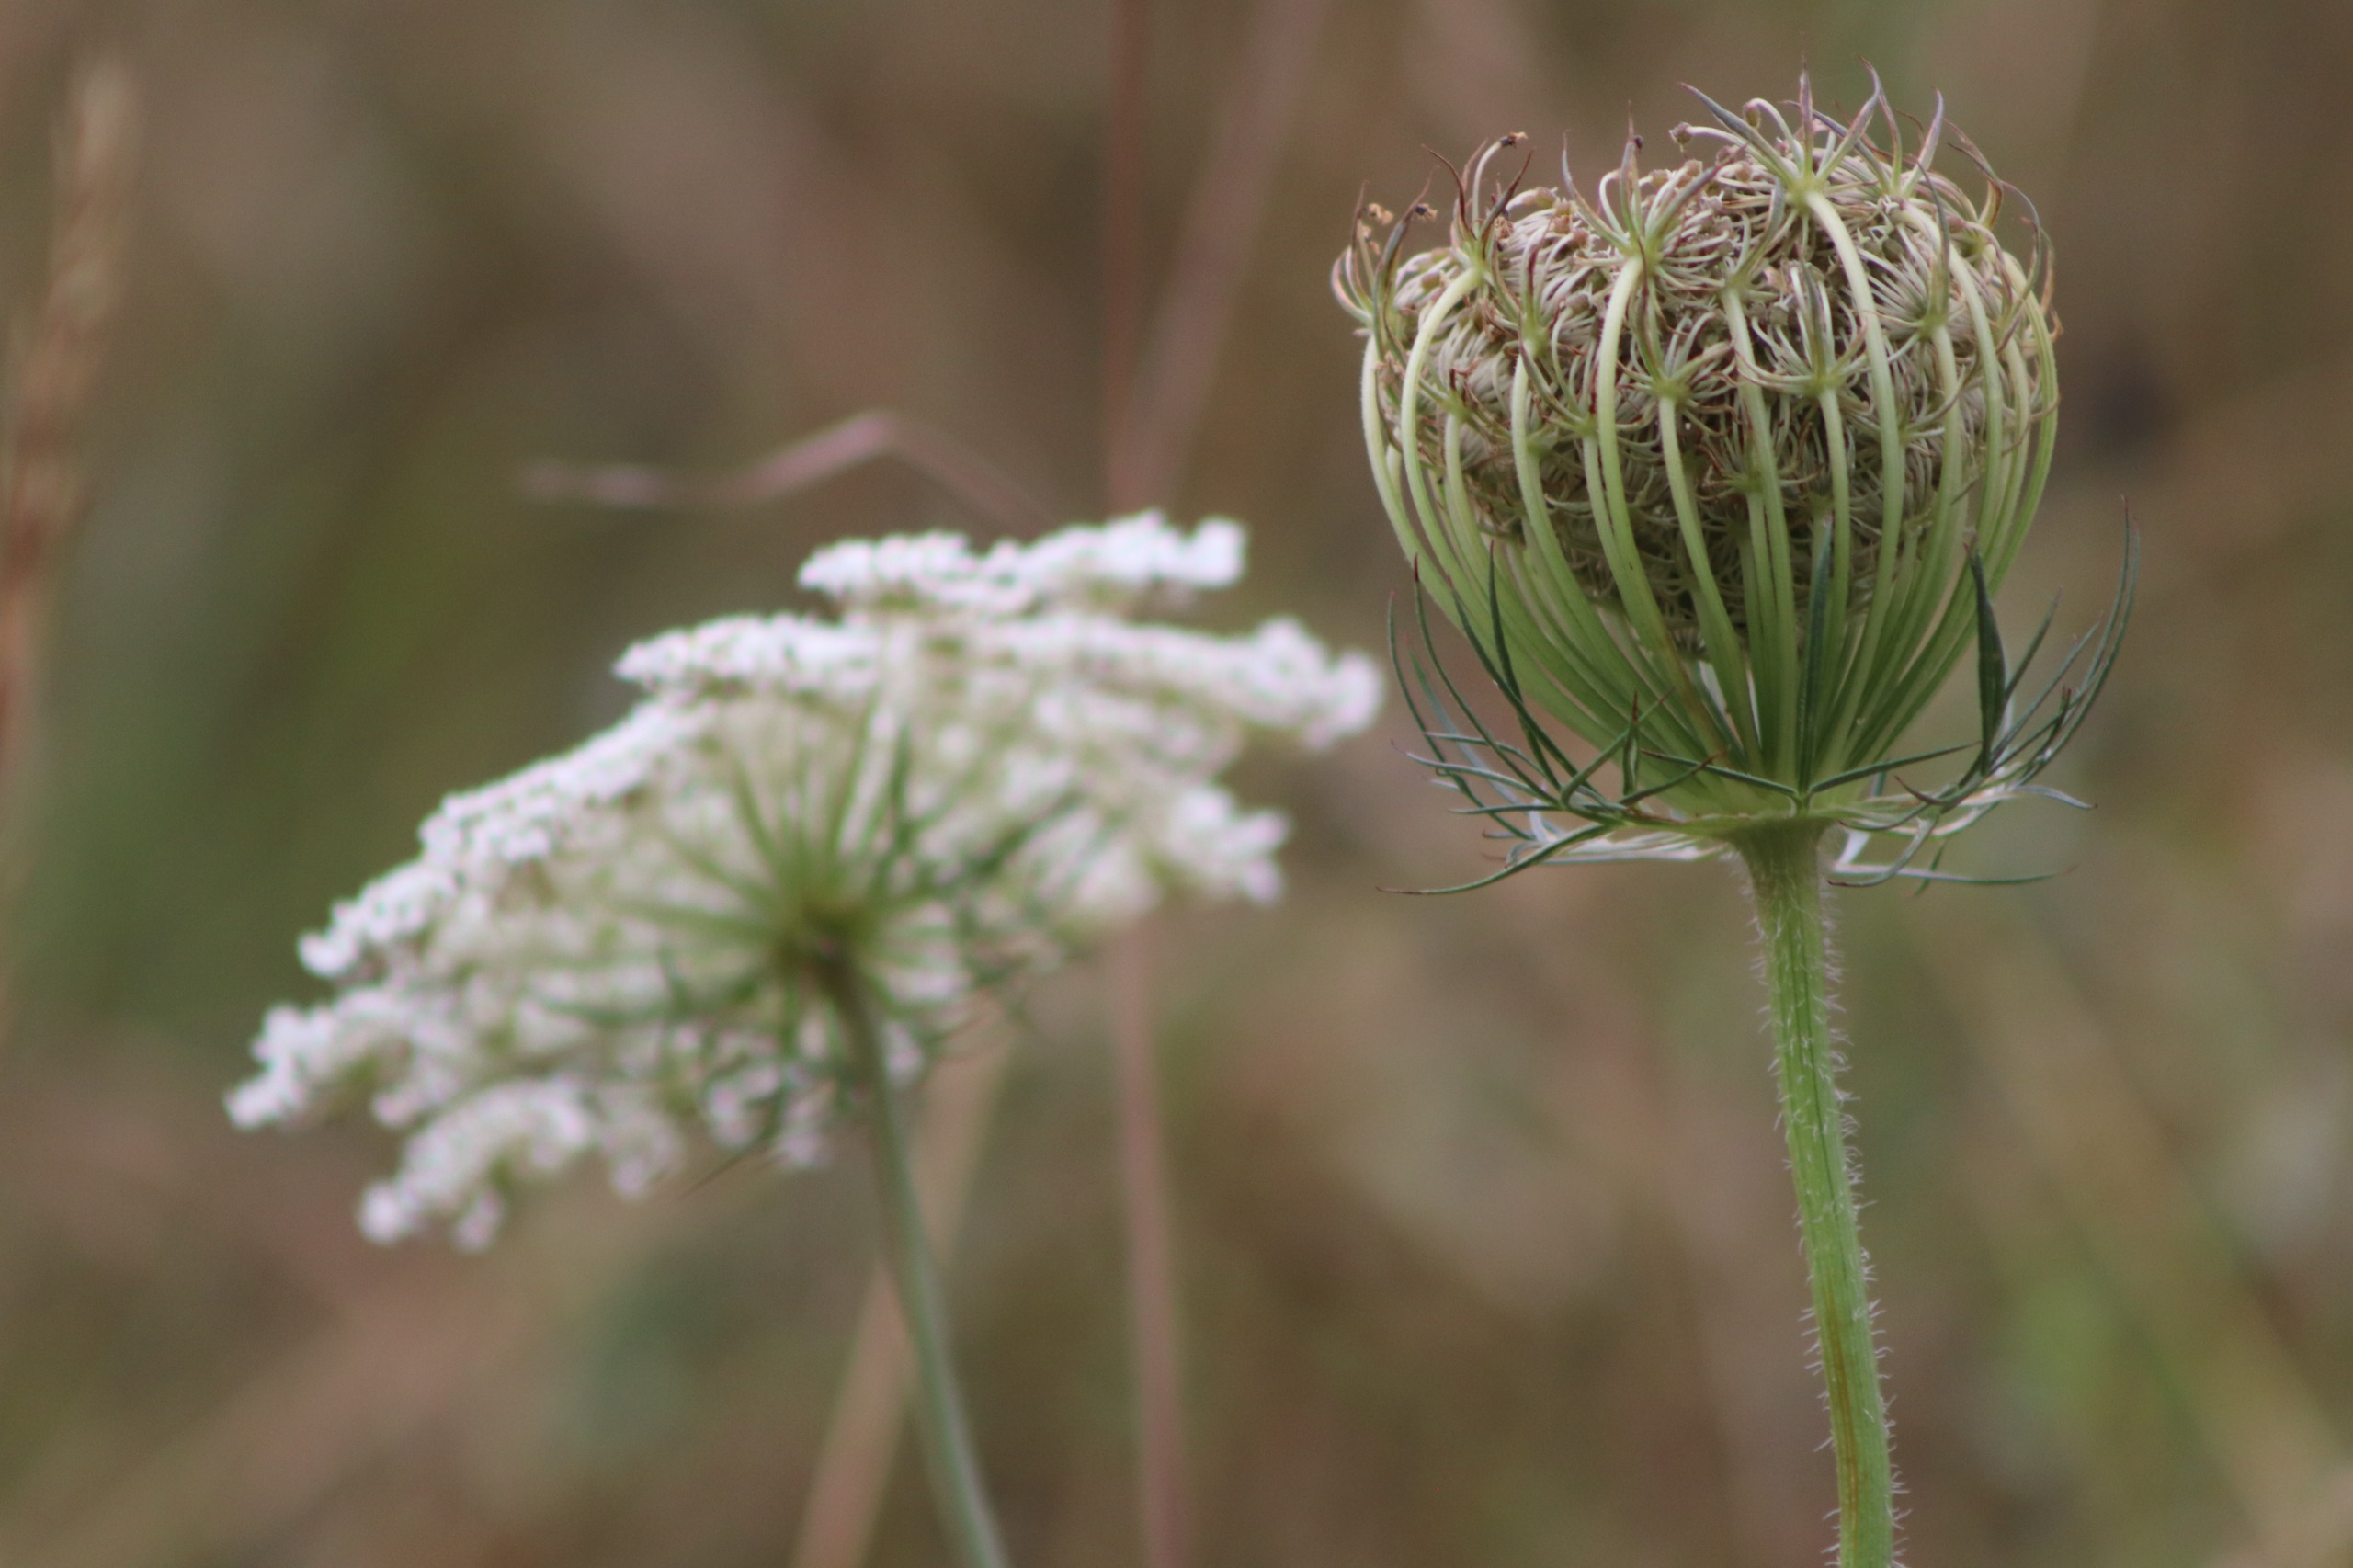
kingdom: Plantae
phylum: Tracheophyta
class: Magnoliopsida
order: Apiales
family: Apiaceae
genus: Daucus
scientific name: Daucus carota
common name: Gulerod
